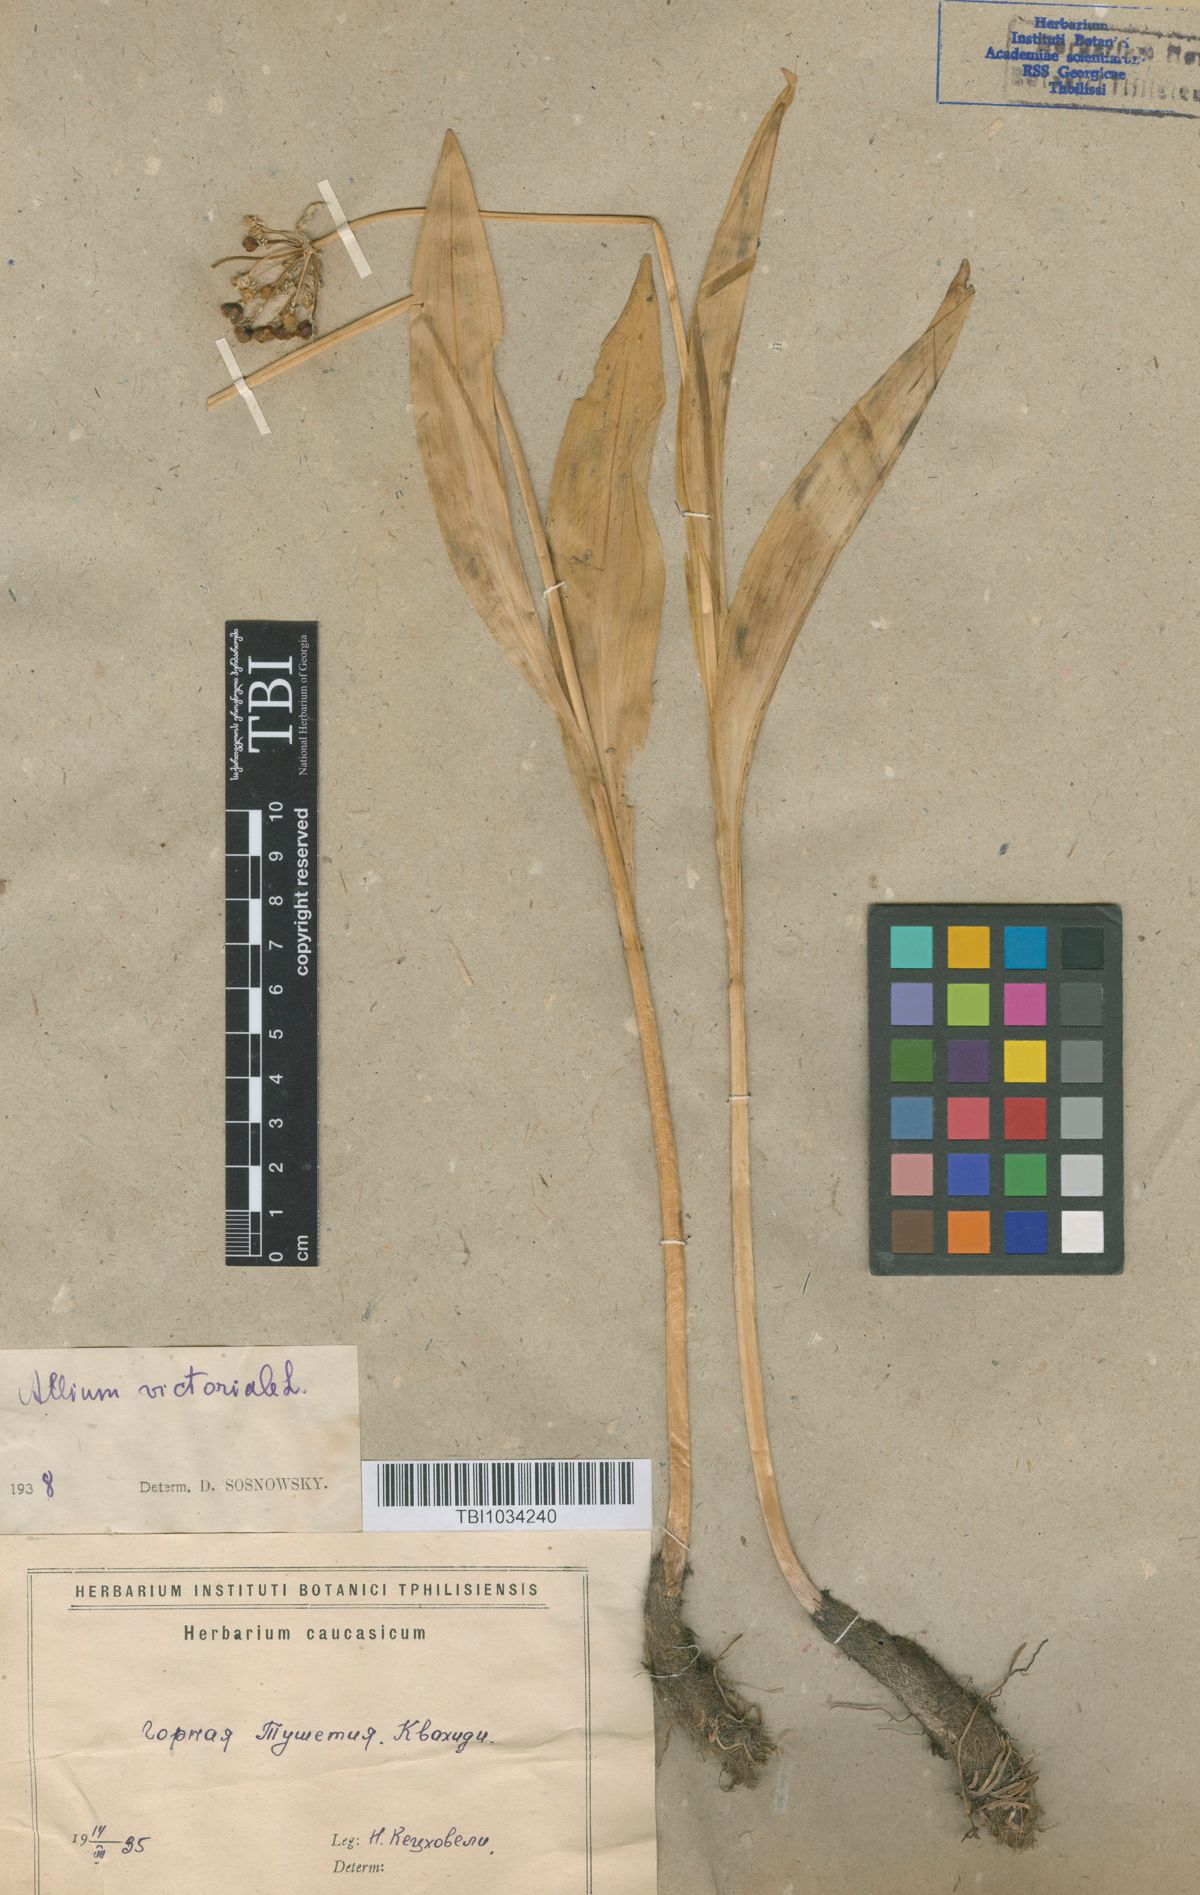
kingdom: Plantae
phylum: Tracheophyta
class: Liliopsida
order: Asparagales
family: Amaryllidaceae
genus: Allium
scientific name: Allium victorialis
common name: Alpine leek
